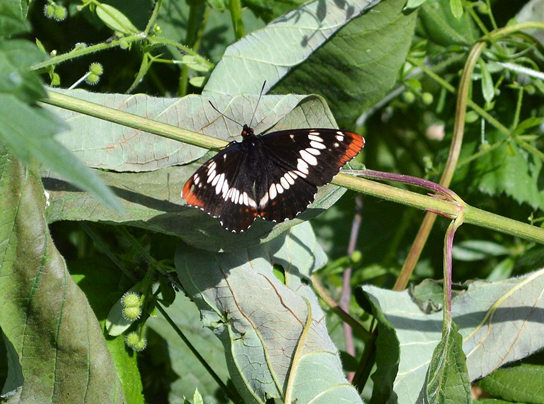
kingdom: Animalia
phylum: Arthropoda
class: Insecta
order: Lepidoptera
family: Nymphalidae
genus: Limenitis
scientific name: Limenitis lorquini
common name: Lorquin's Admiral
